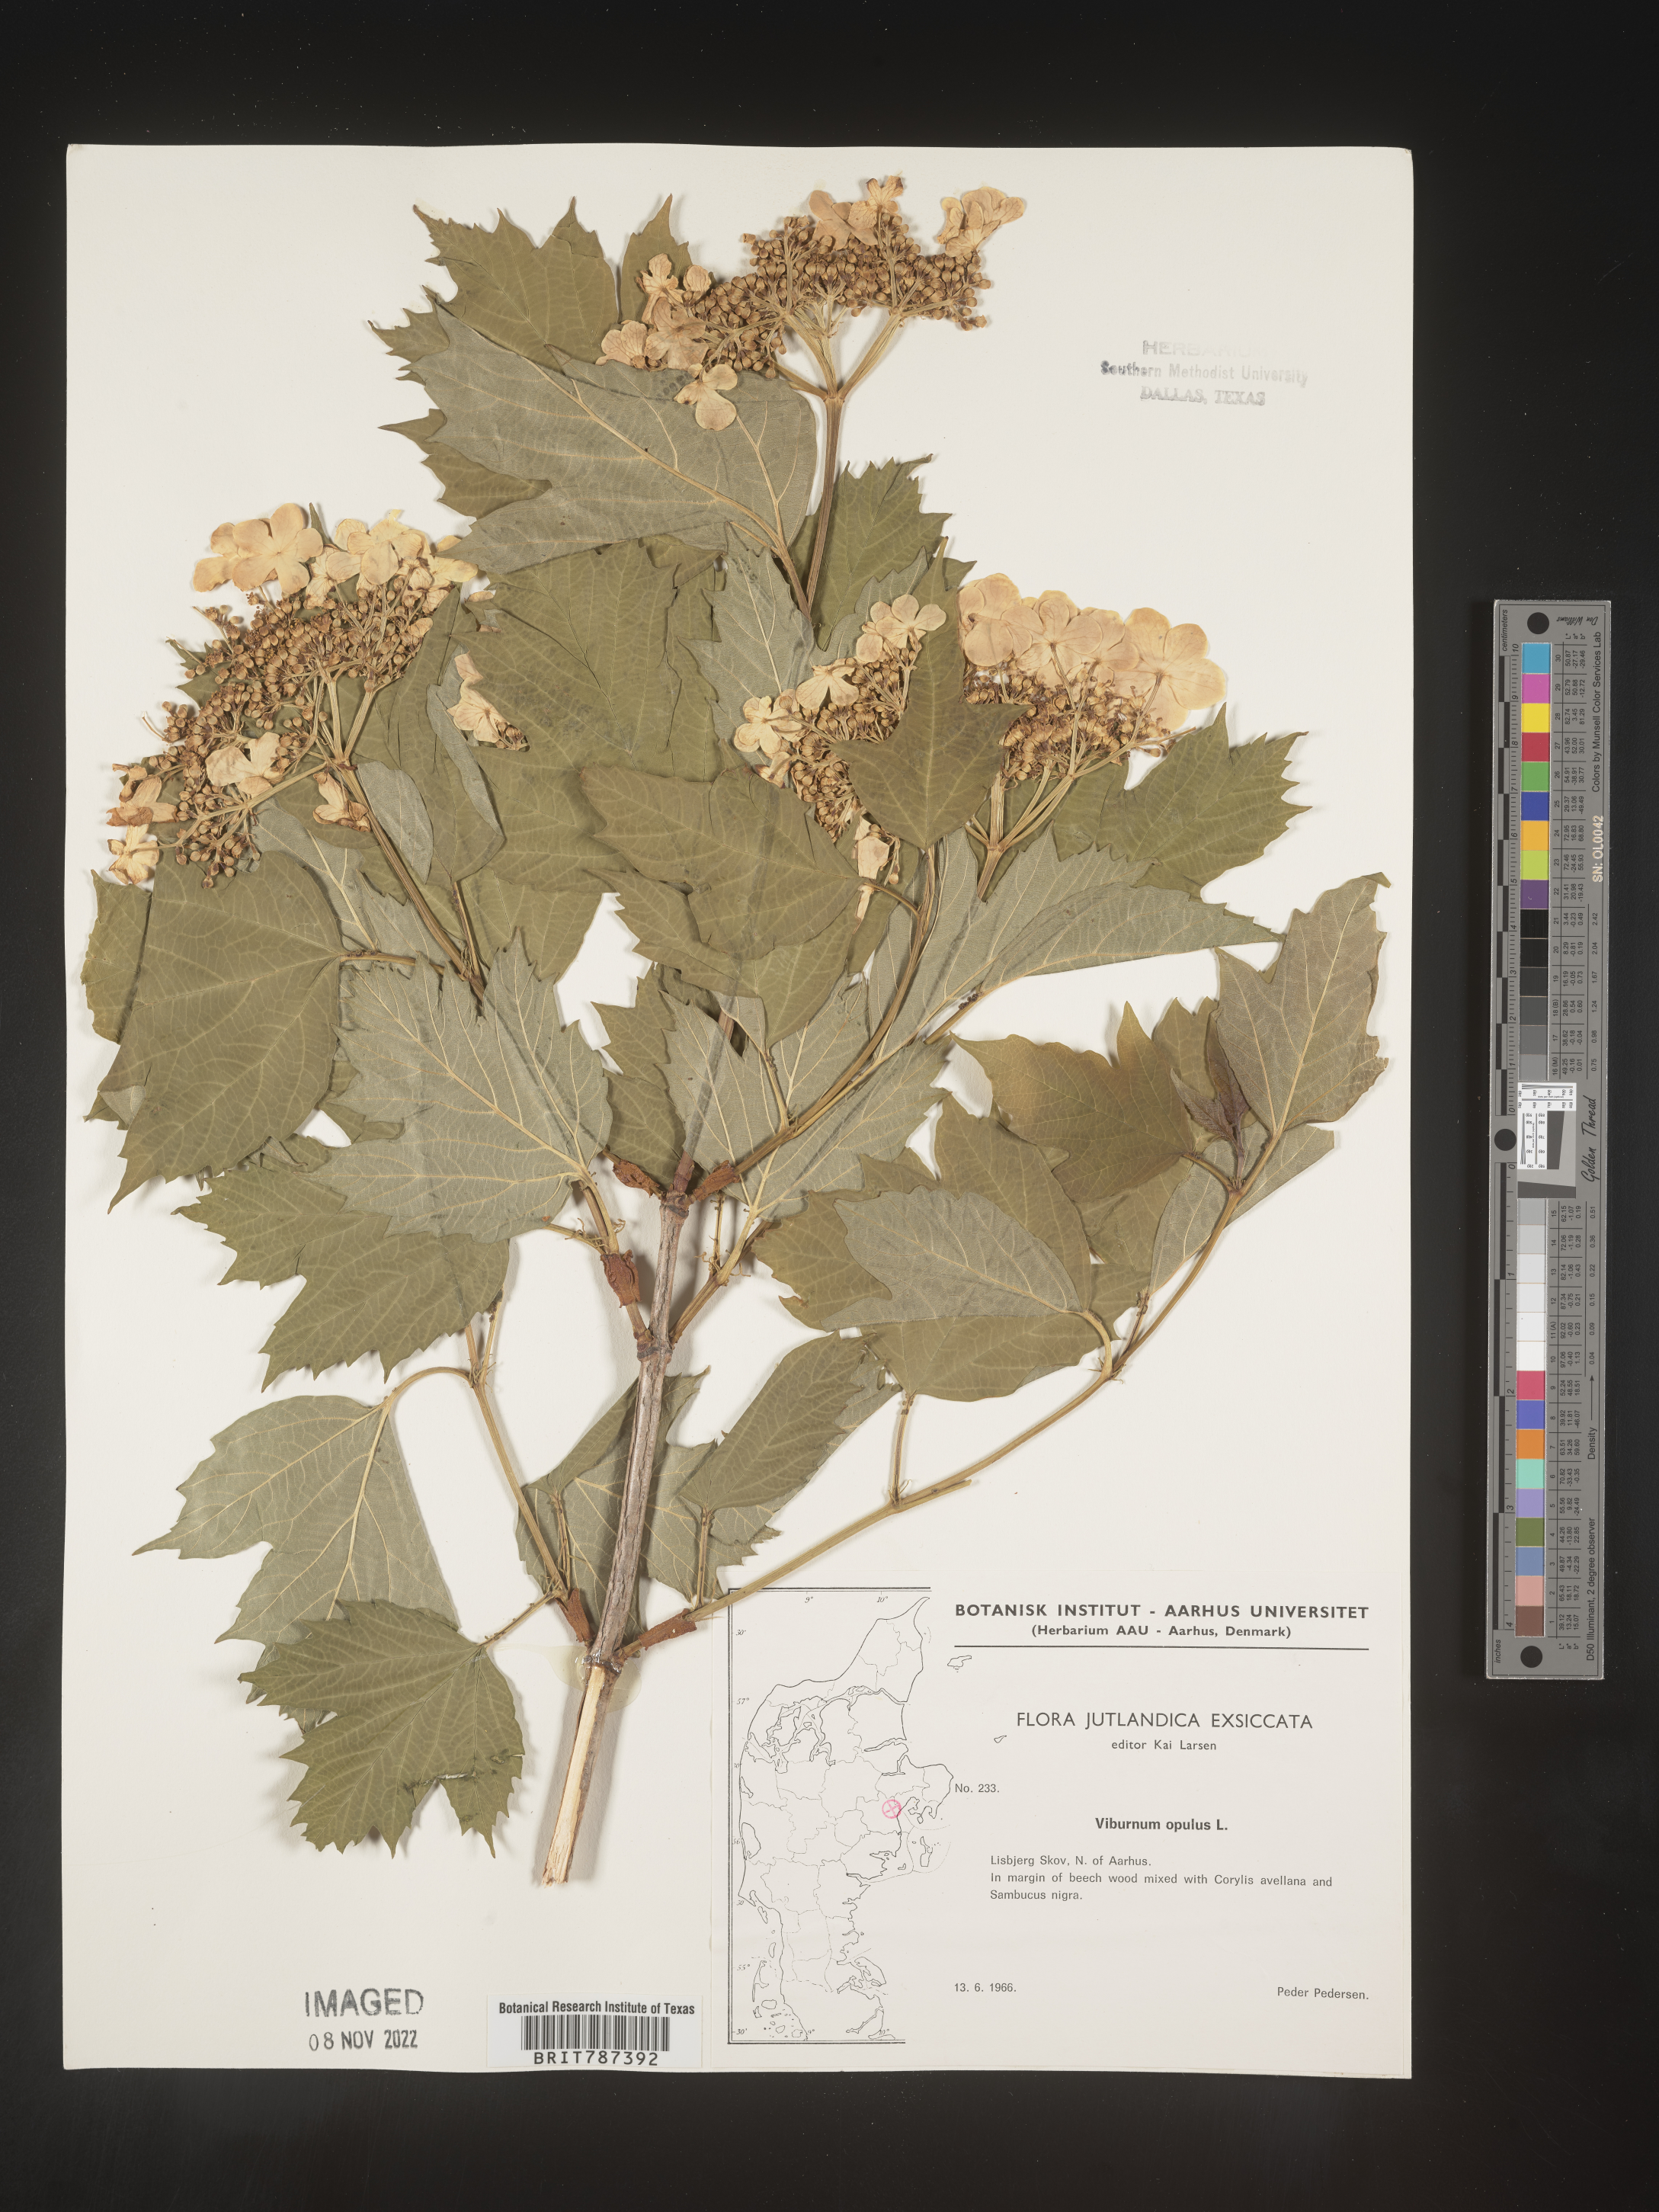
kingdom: Plantae
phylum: Tracheophyta
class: Magnoliopsida
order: Dipsacales
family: Viburnaceae
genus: Viburnum
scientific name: Viburnum opulus
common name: Guelder-rose
